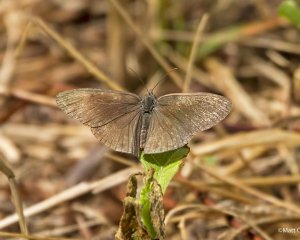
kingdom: Animalia
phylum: Arthropoda
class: Insecta
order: Lepidoptera
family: Nymphalidae
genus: Hermeuptychia
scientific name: Hermeuptychia hermes
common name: Carolina Satyr
